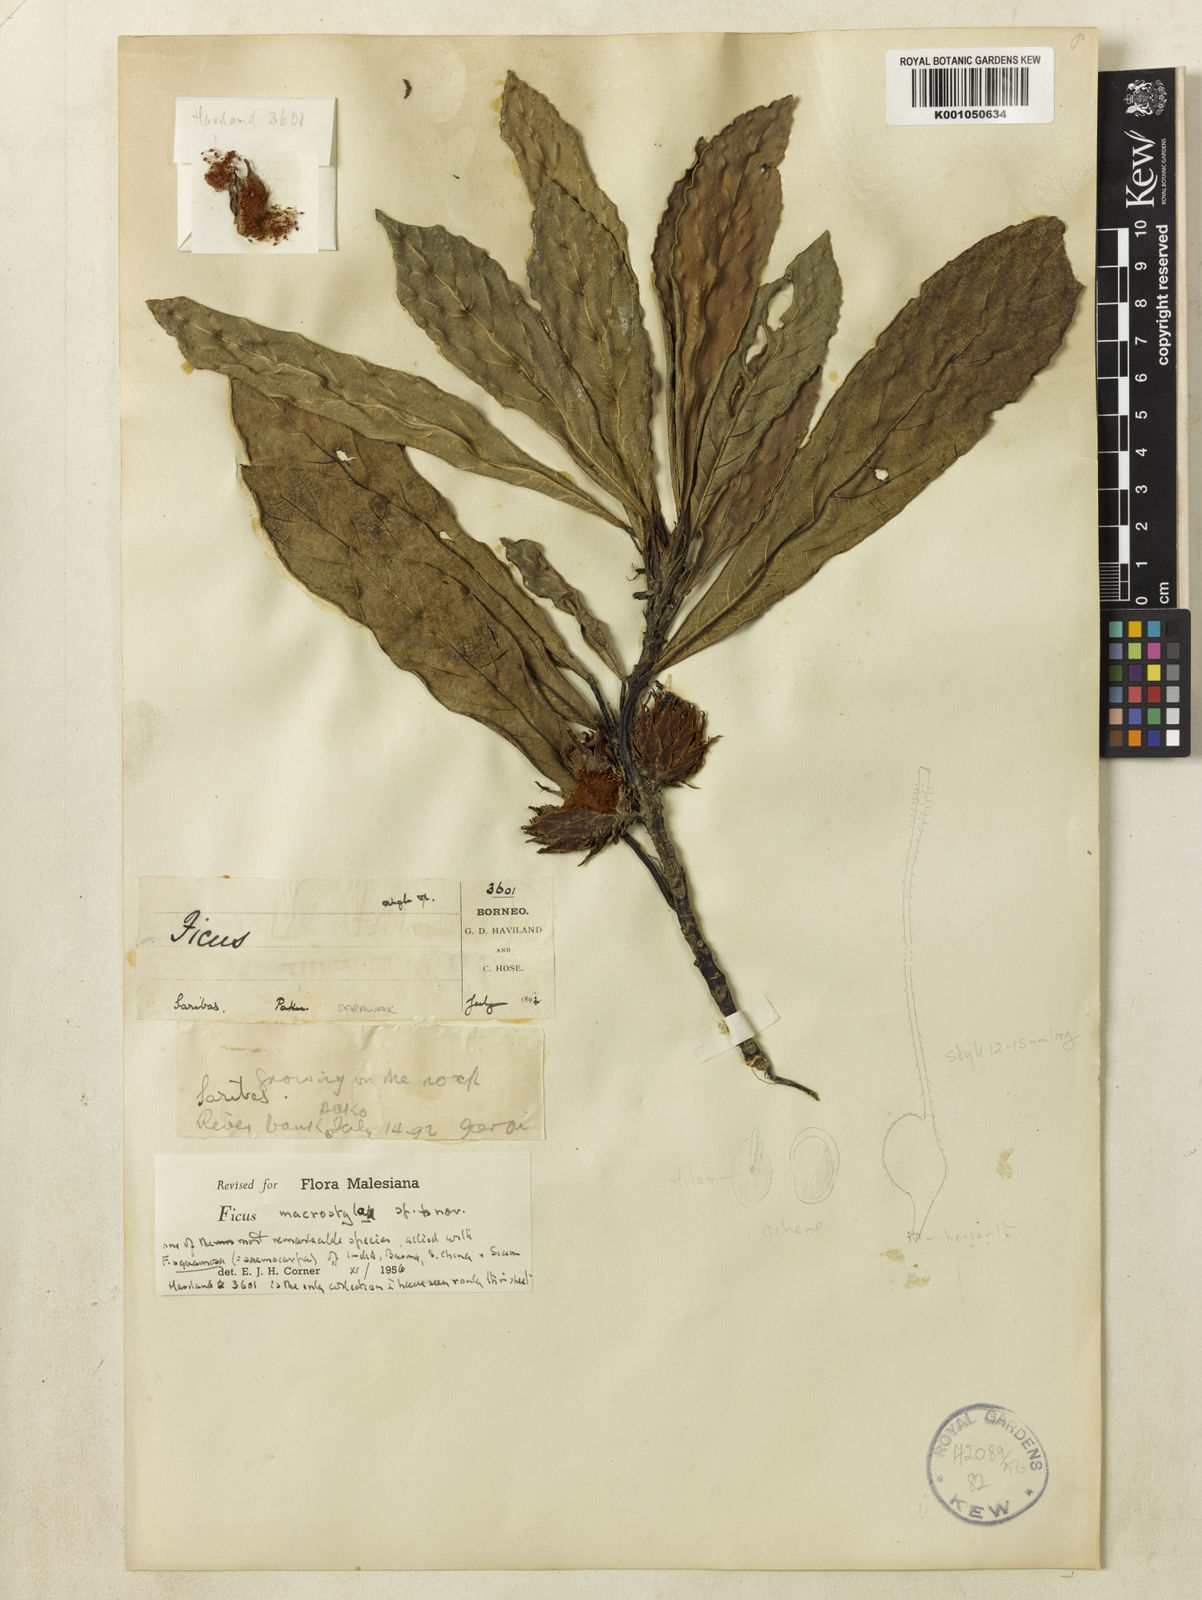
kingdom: Plantae
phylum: Tracheophyta
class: Magnoliopsida
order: Rosales
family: Moraceae
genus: Ficus
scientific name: Ficus macrostyla
